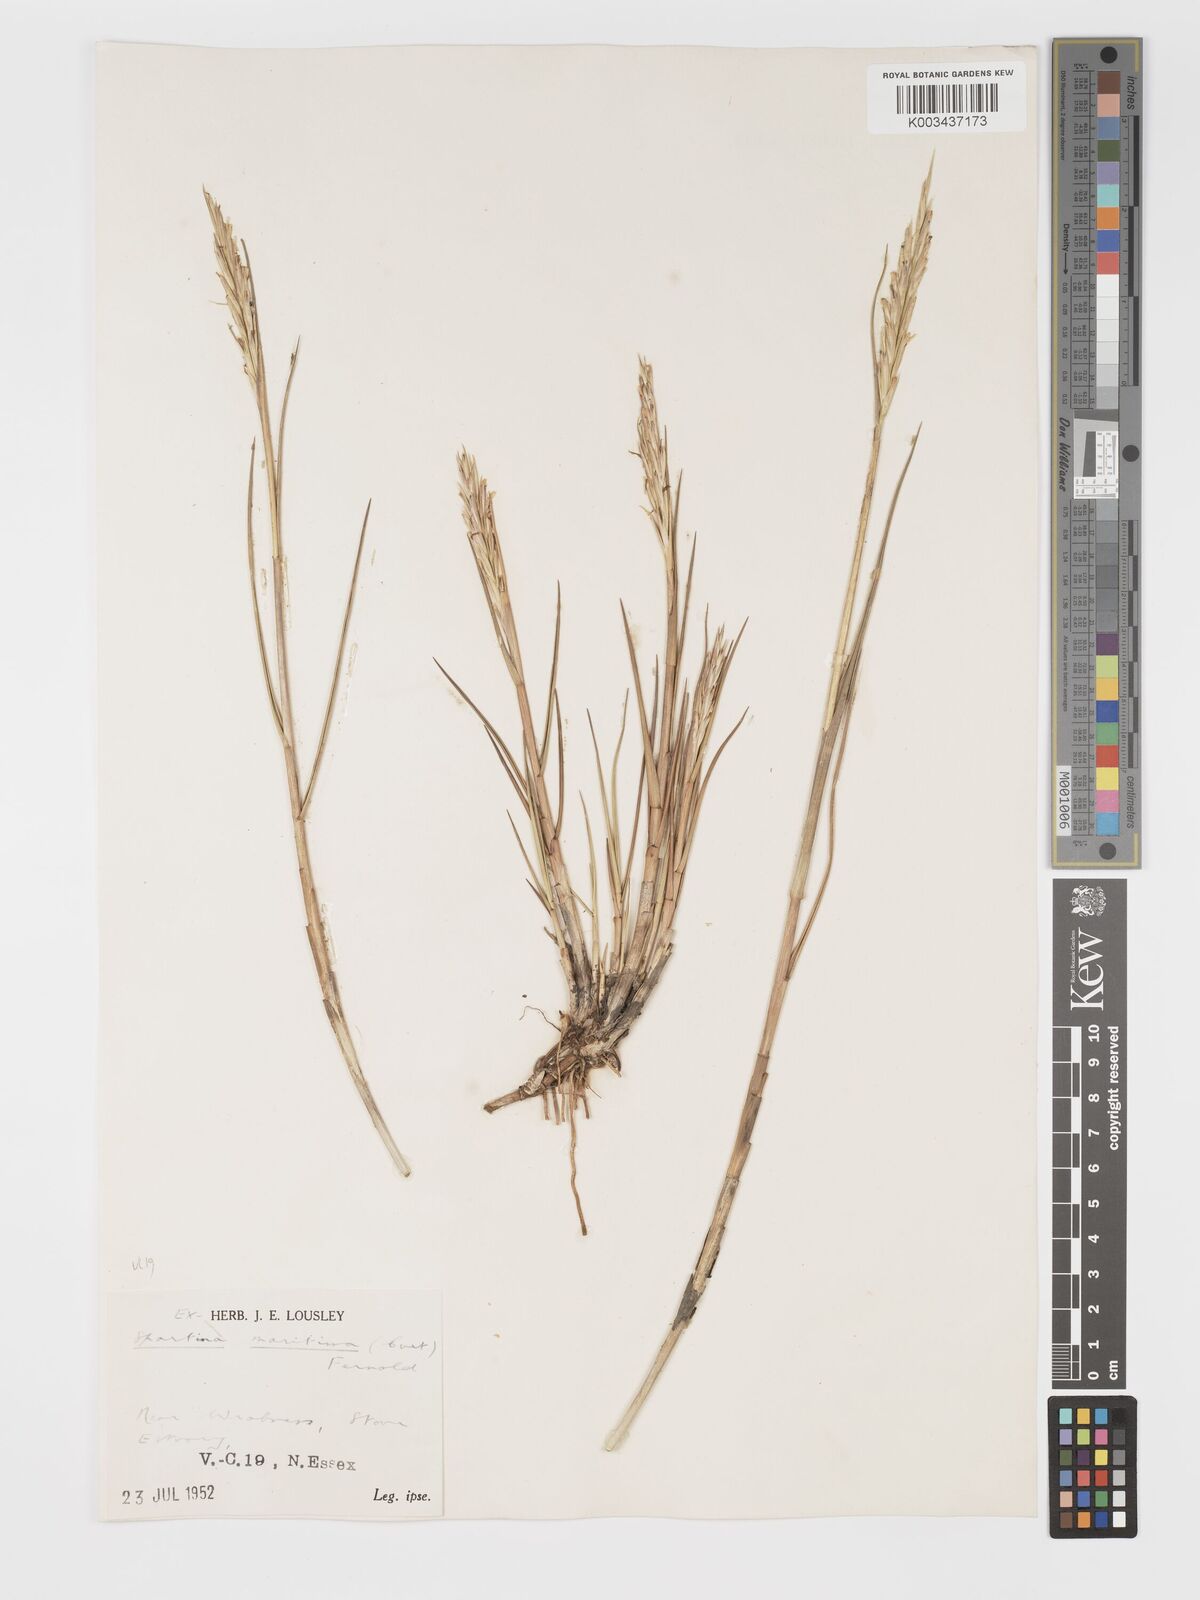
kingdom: Plantae
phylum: Tracheophyta
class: Liliopsida
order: Poales
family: Poaceae
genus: Sporobolus
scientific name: Sporobolus maritimus
